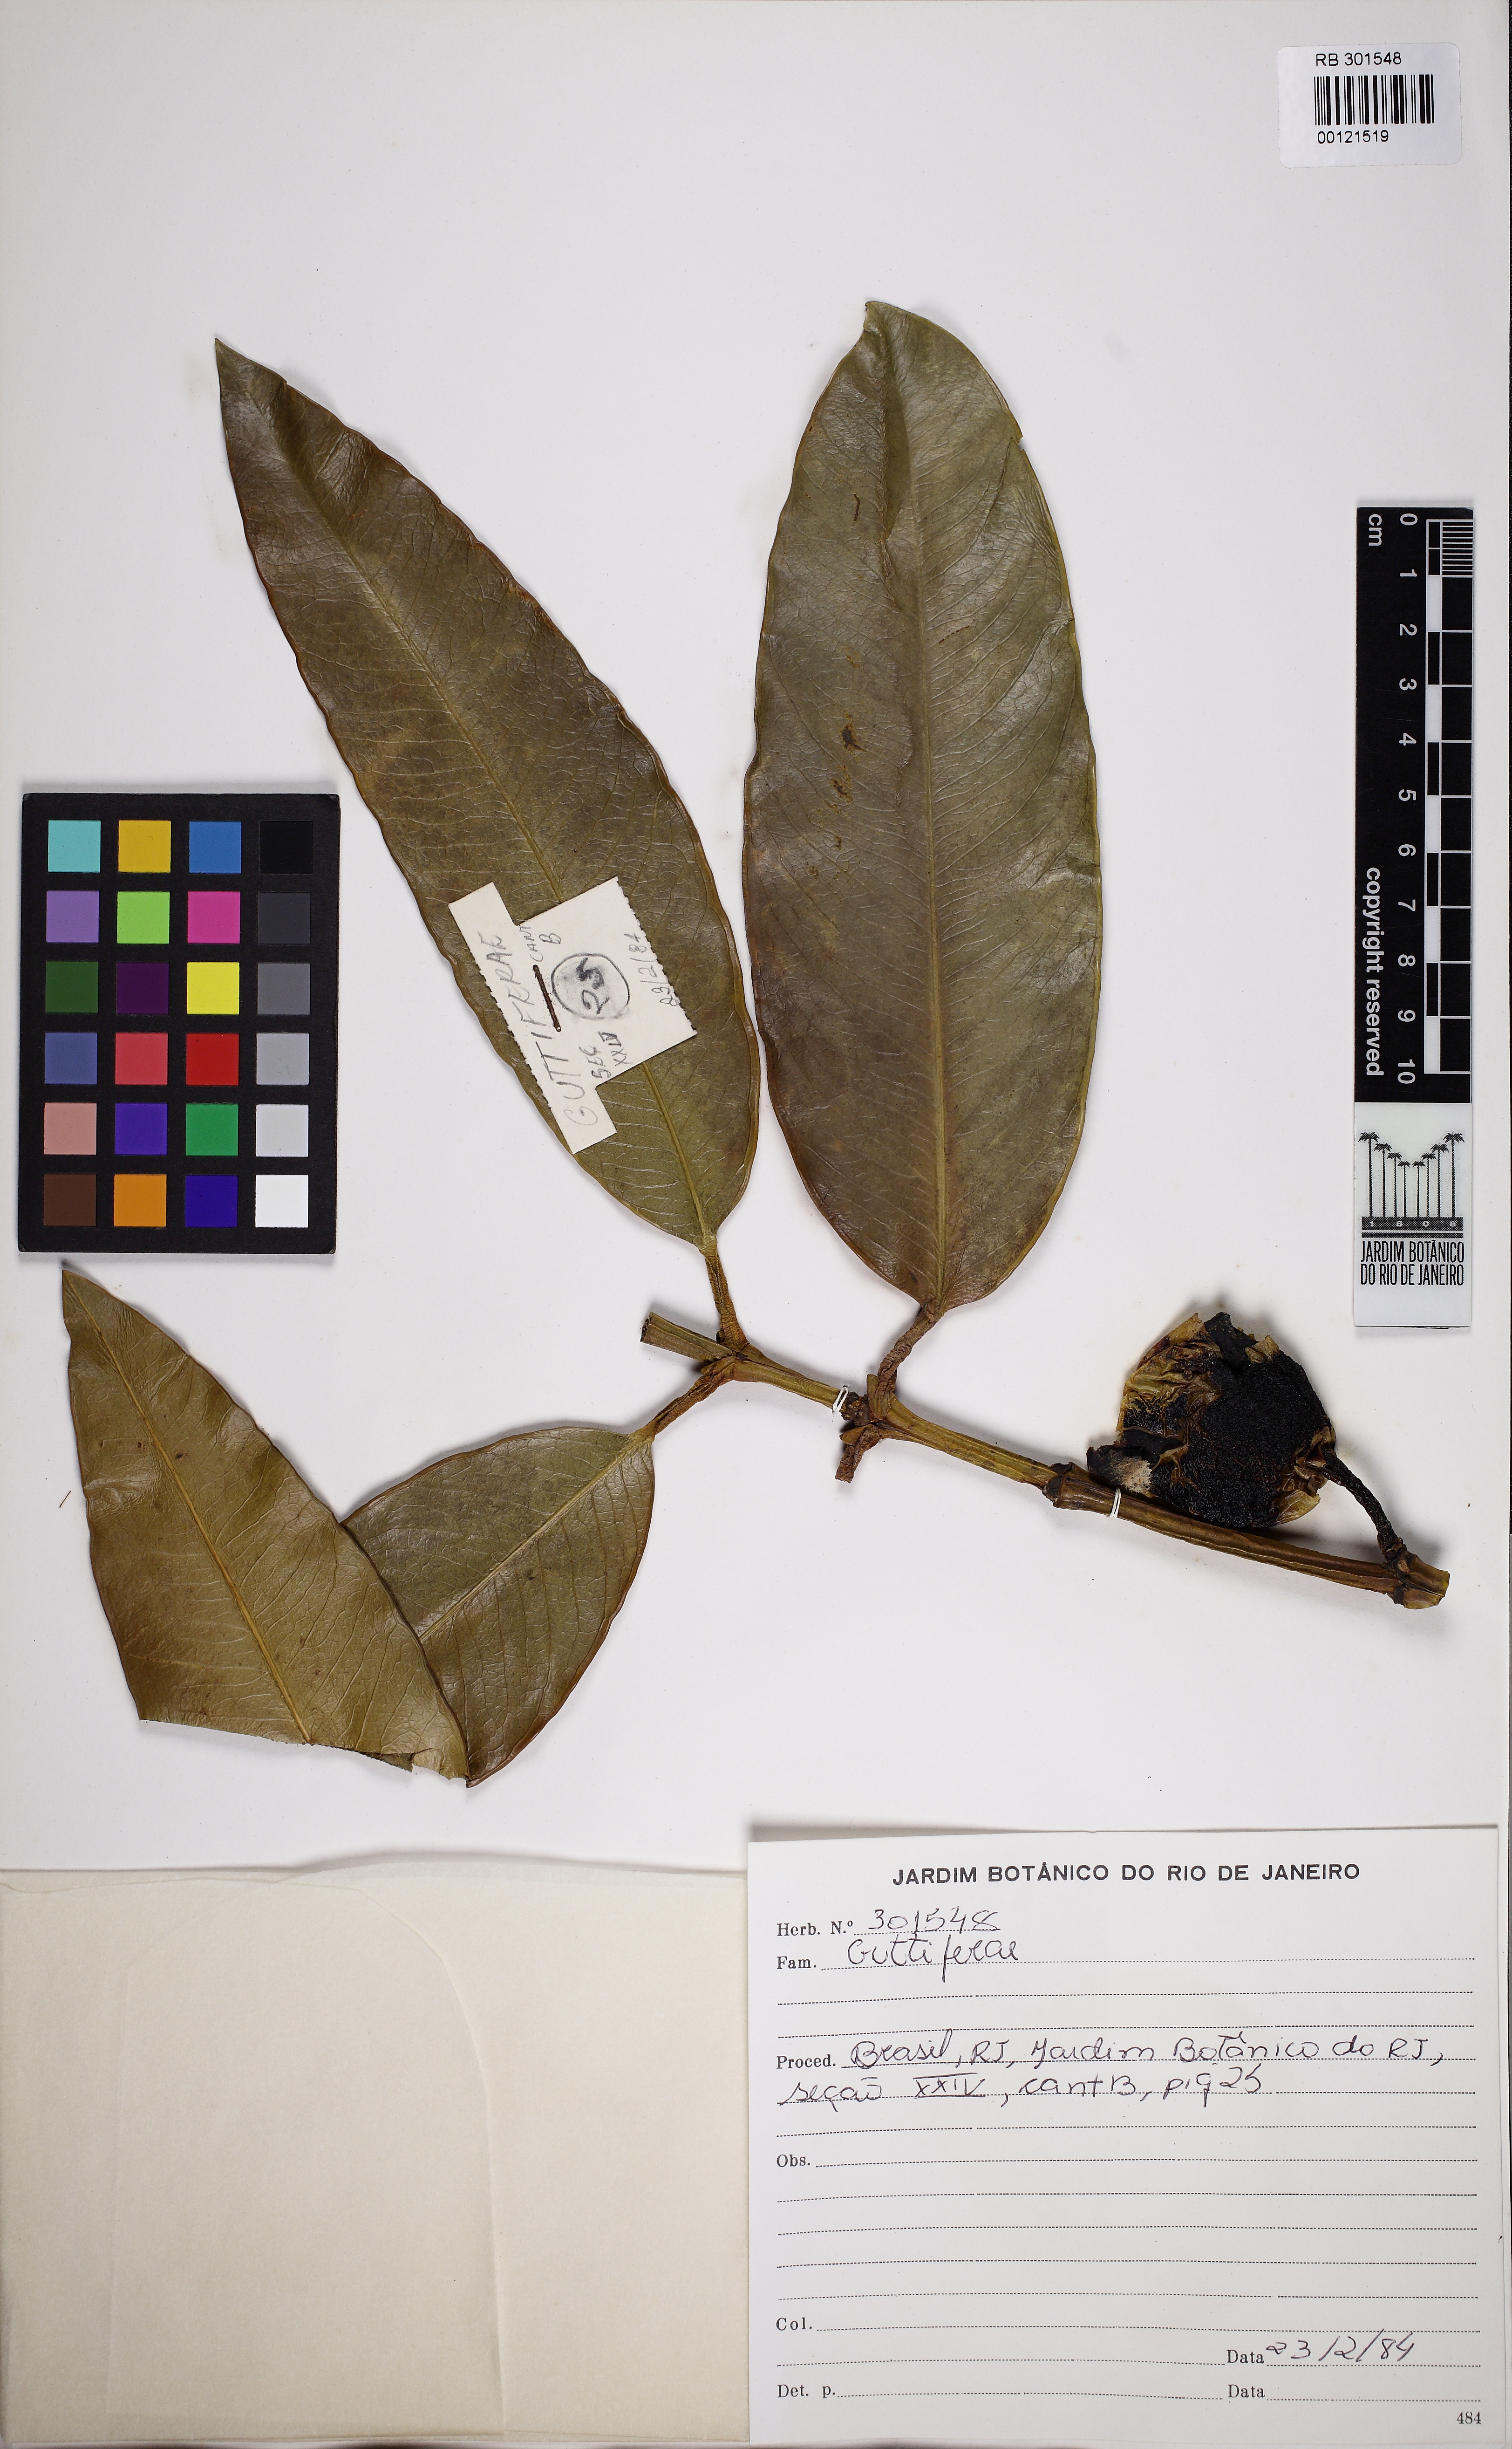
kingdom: Plantae
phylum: Tracheophyta
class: Magnoliopsida
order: Malpighiales
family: Clusiaceae
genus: Garcinia
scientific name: Garcinia xanthochymus
